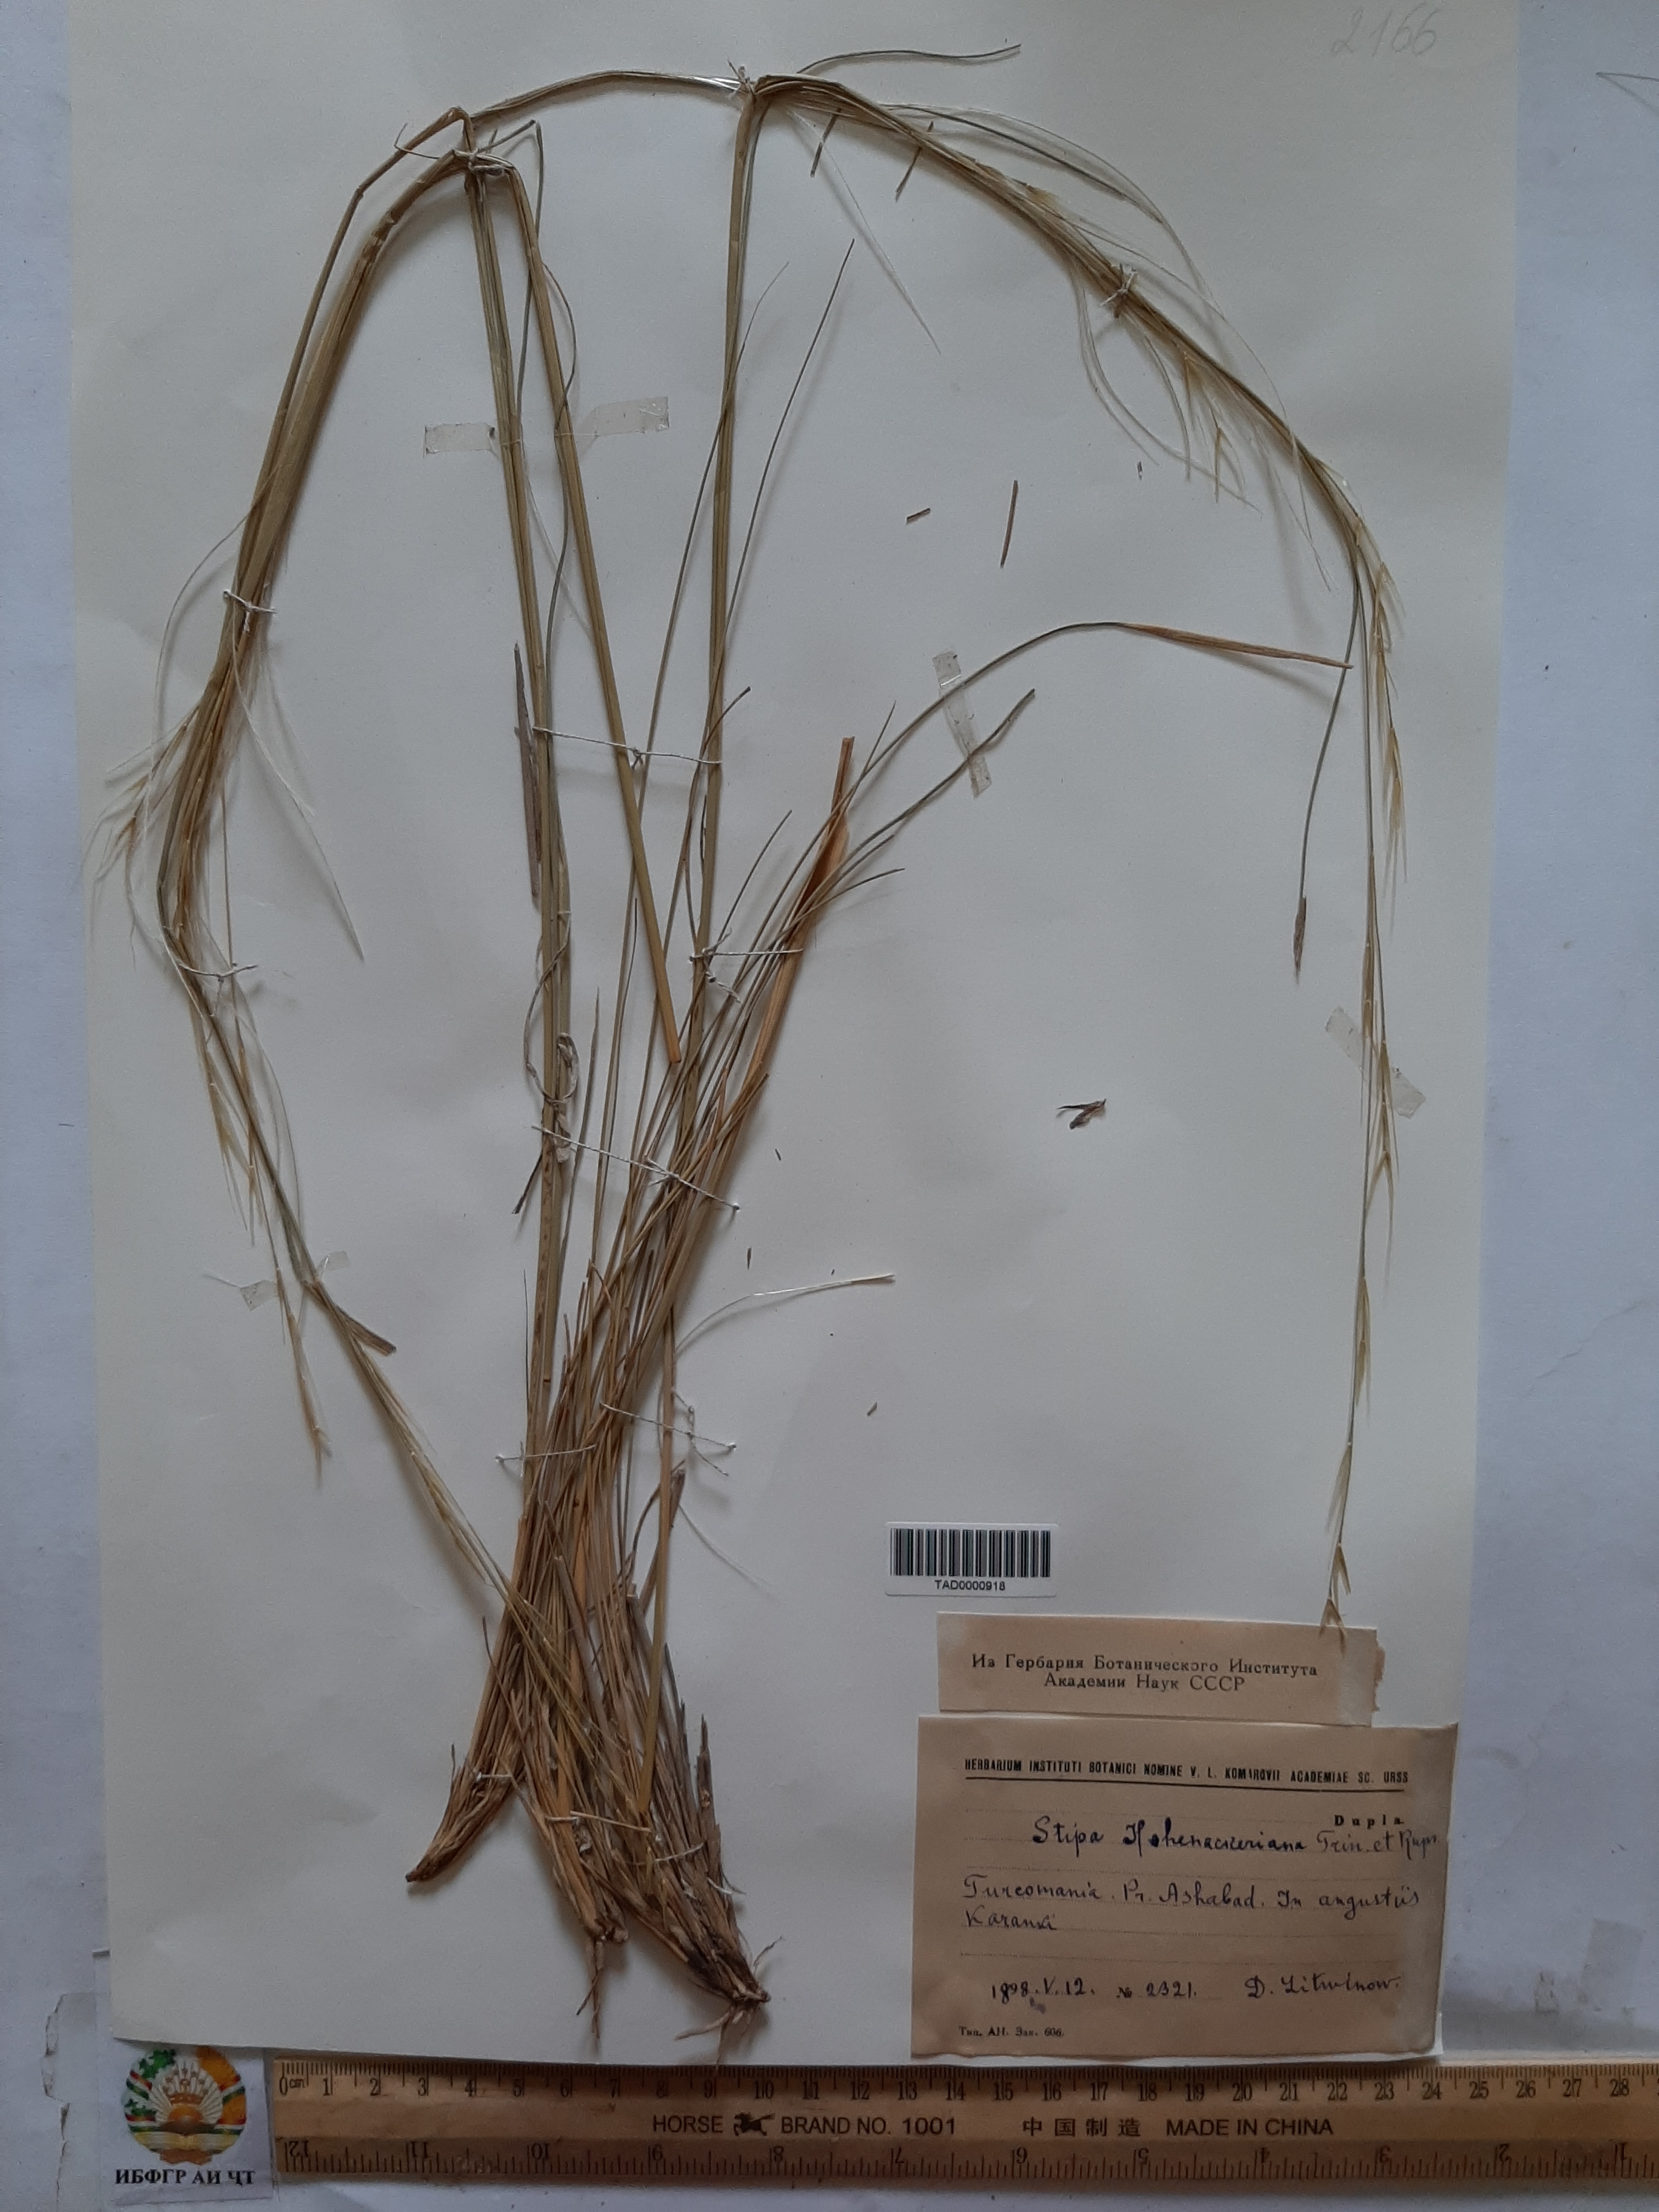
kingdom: Plantae
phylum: Tracheophyta
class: Liliopsida
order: Poales
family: Poaceae
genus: Stipa
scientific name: Stipa hohenackeriana
